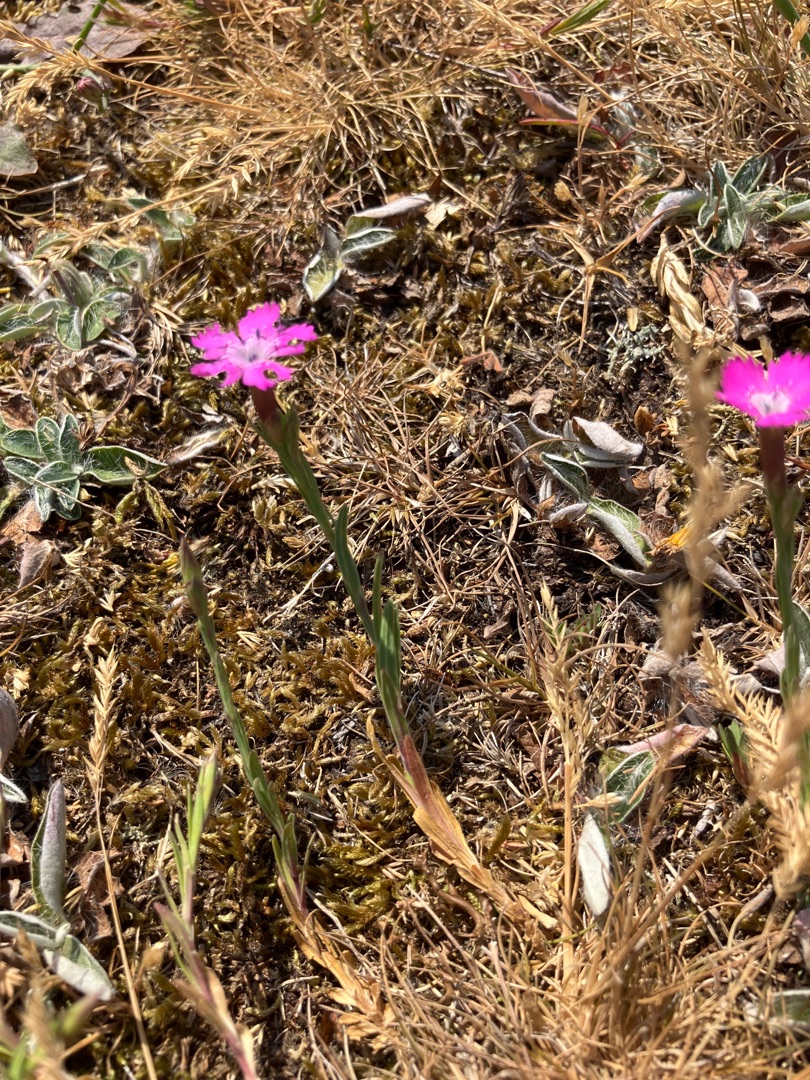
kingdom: Plantae
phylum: Tracheophyta
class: Magnoliopsida
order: Caryophyllales
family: Caryophyllaceae
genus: Dianthus
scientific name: Dianthus deltoides
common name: Bakke-nellike
